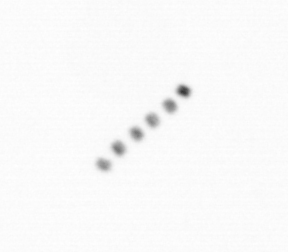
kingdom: Chromista
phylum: Ochrophyta
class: Bacillariophyceae
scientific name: Bacillariophyceae
